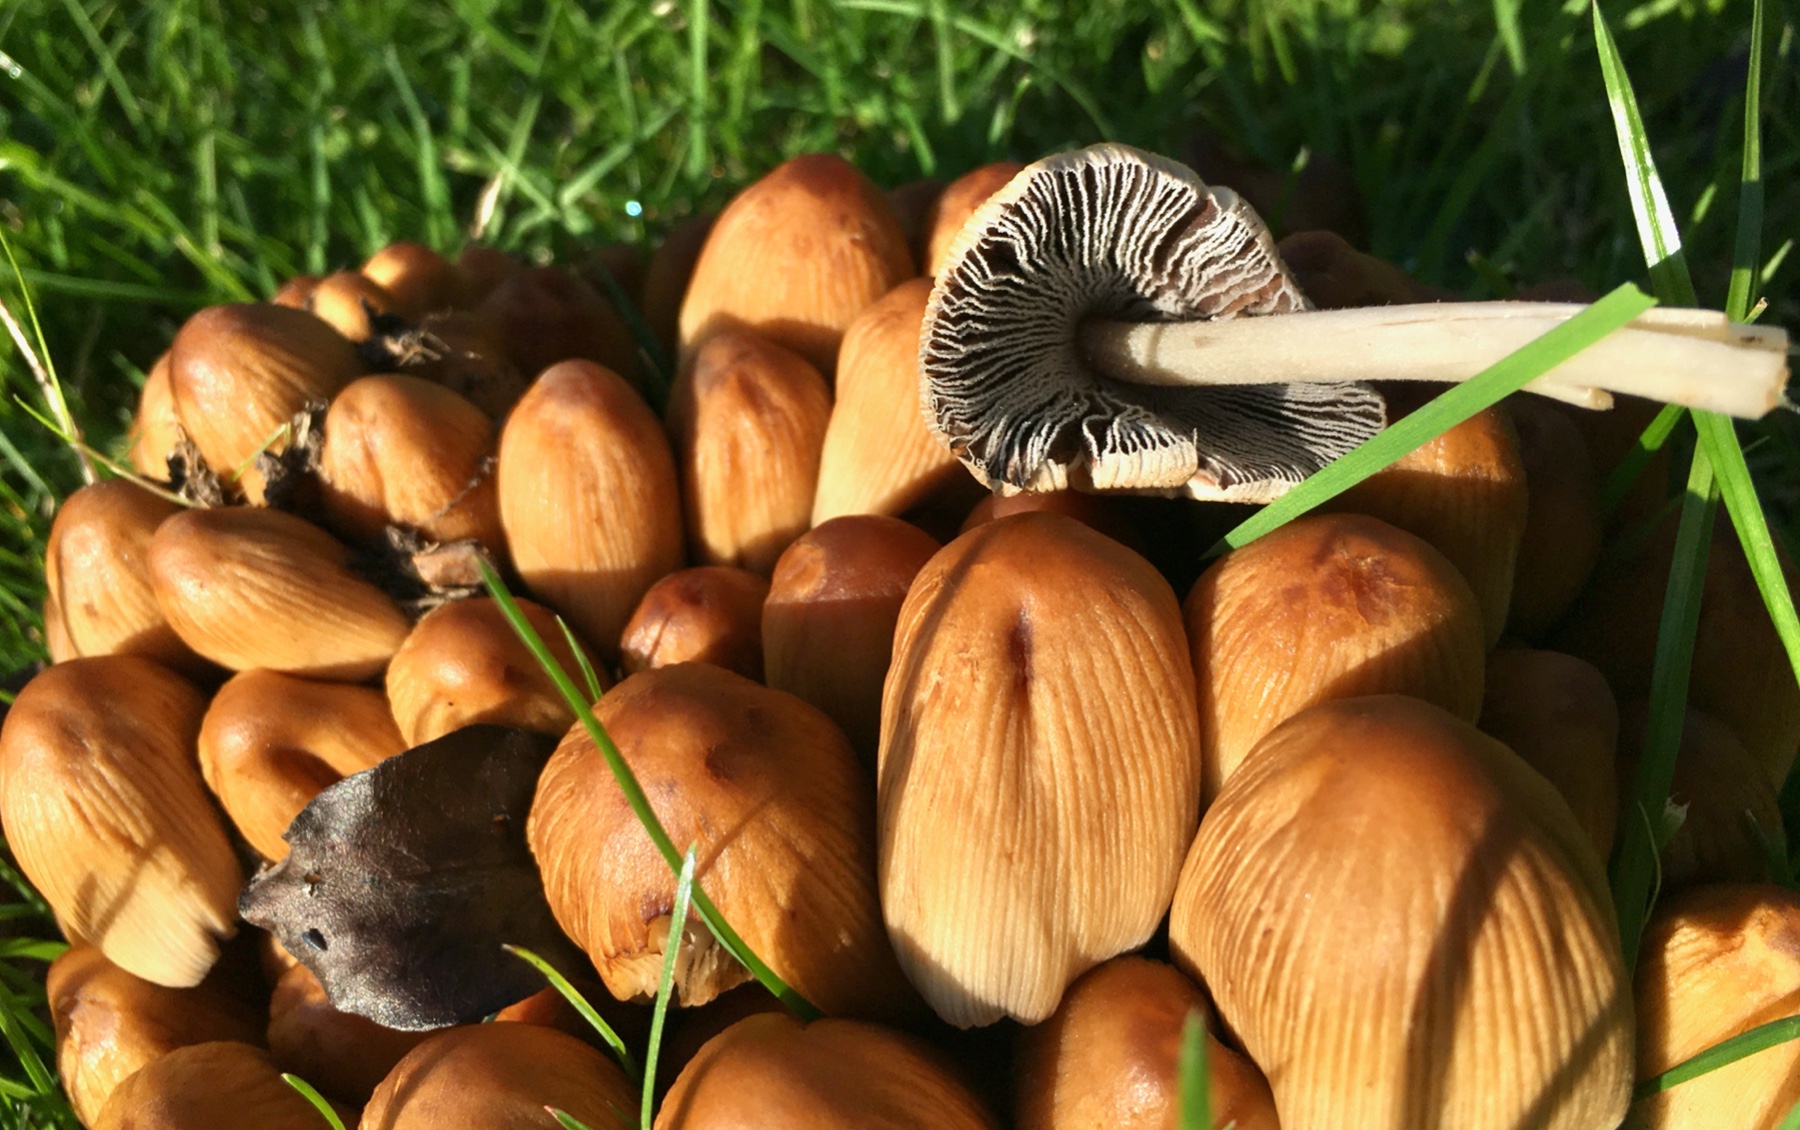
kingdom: Fungi
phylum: Basidiomycota
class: Agaricomycetes
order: Agaricales
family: Psathyrellaceae
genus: Coprinellus
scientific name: Coprinellus micaceus
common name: glimmer-blækhat
